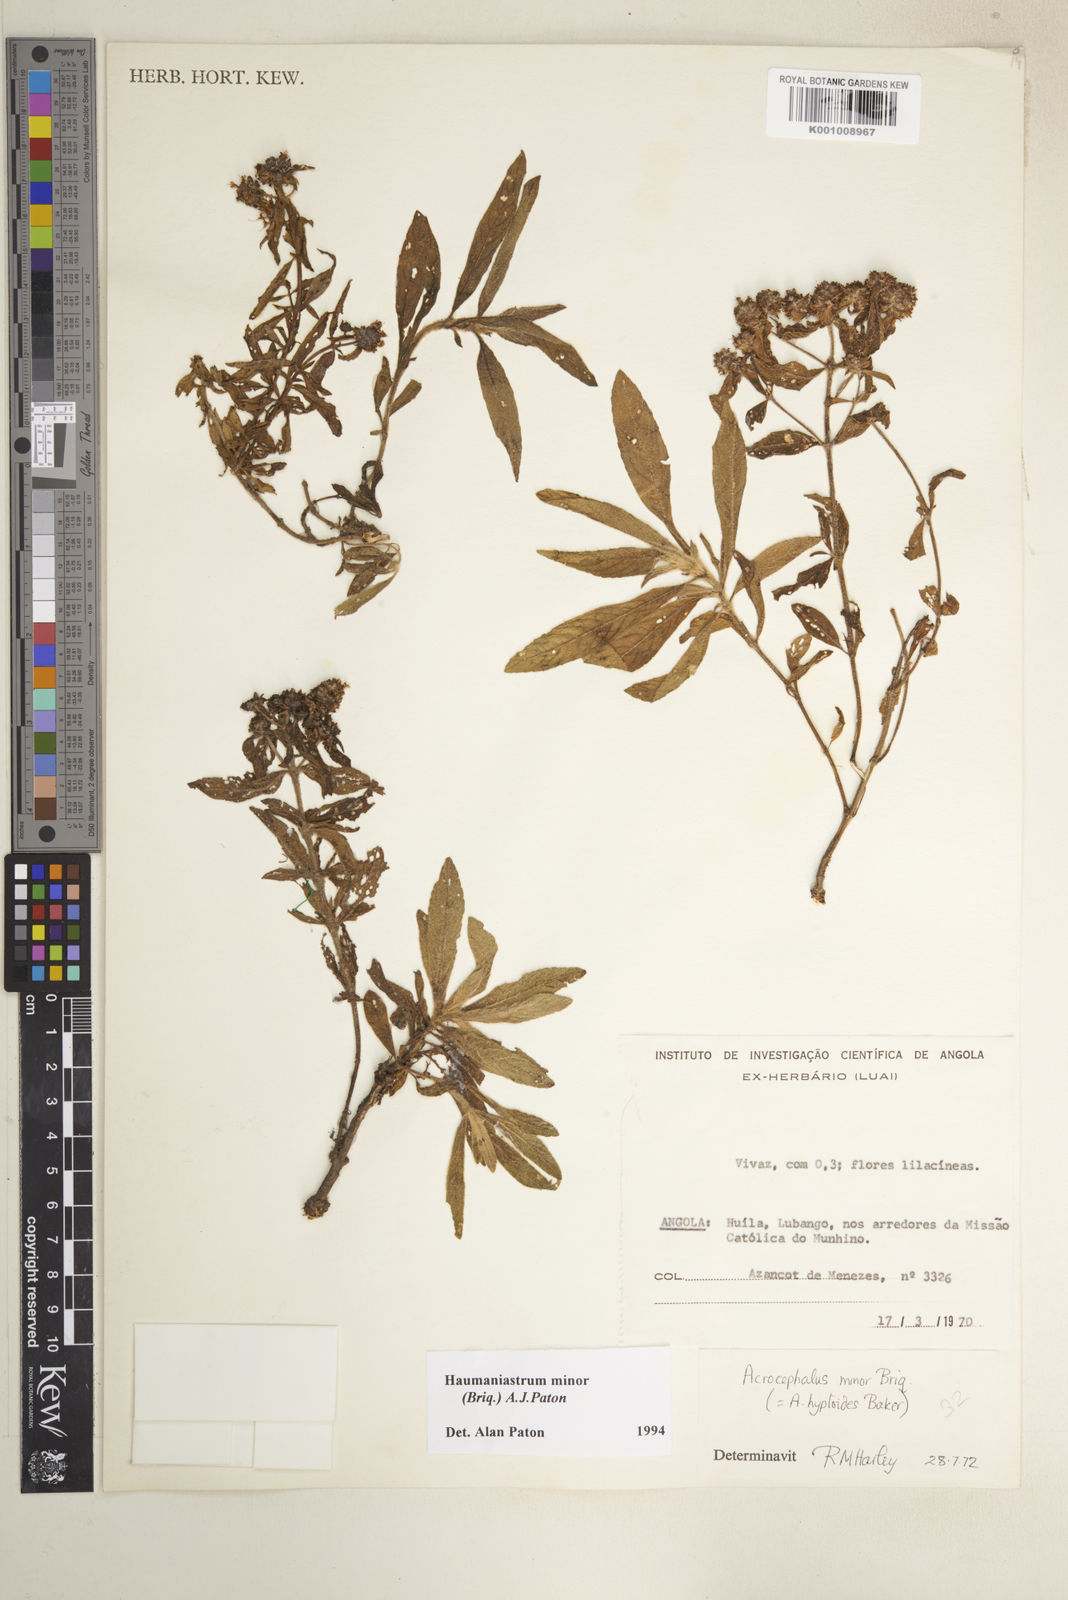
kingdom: Plantae
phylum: Tracheophyta
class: Magnoliopsida
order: Lamiales
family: Lamiaceae
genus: Haumaniastrum
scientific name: Haumaniastrum minor
